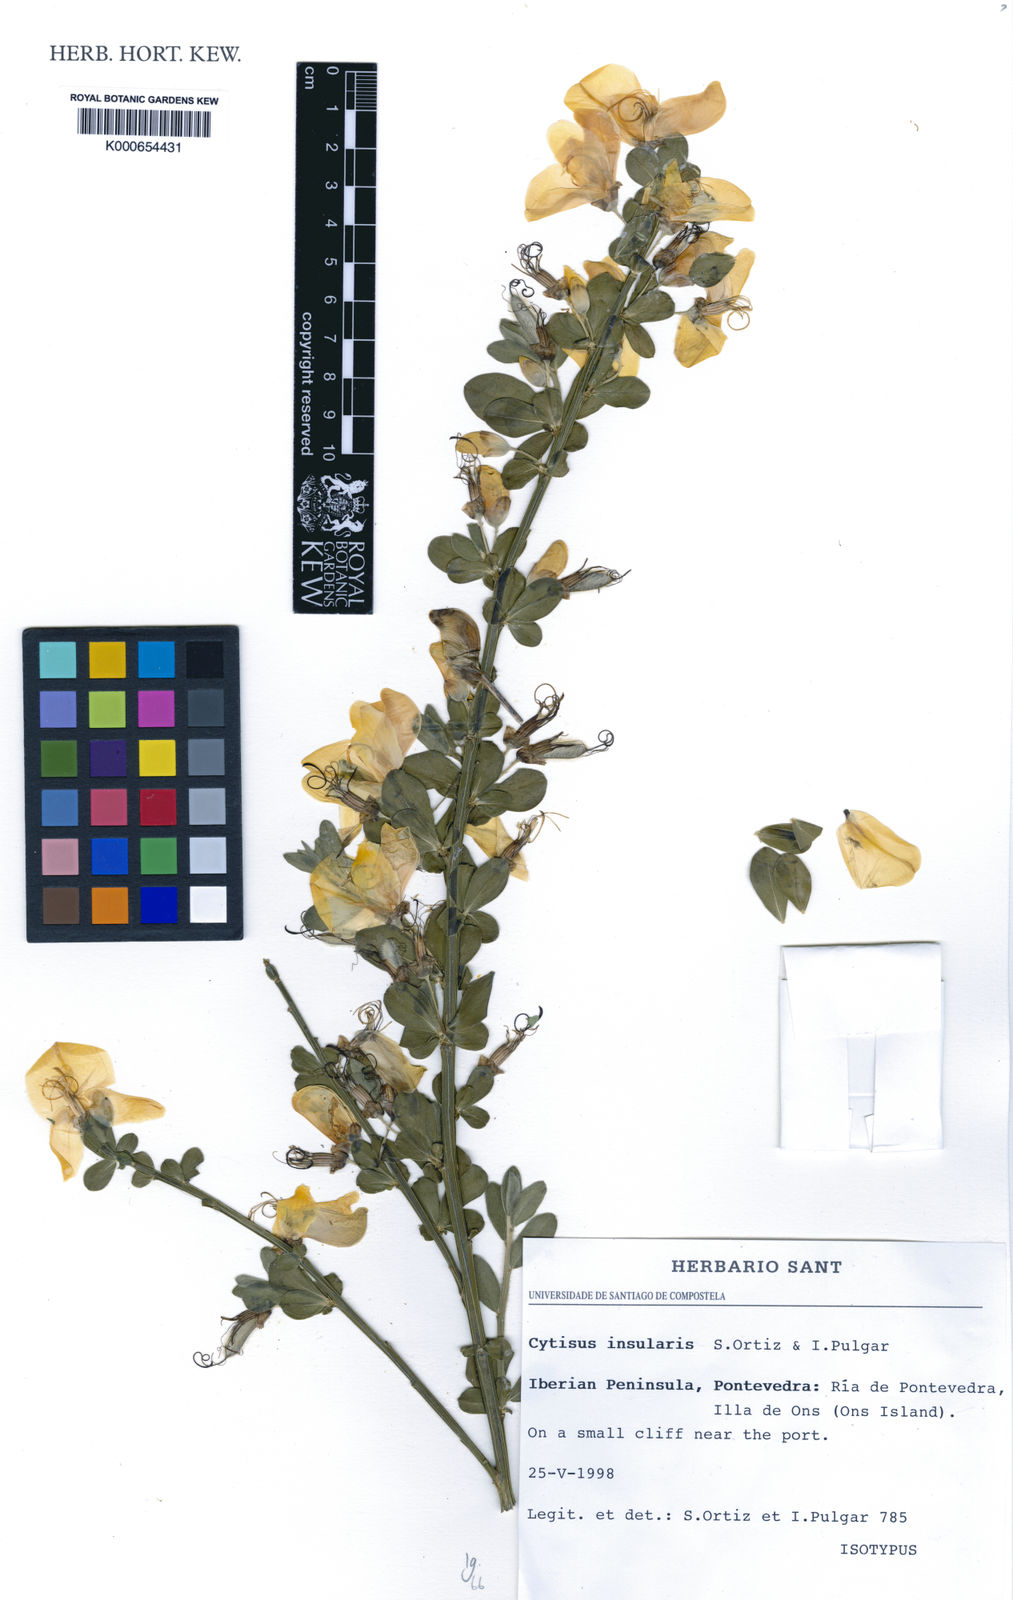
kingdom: Plantae
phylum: Tracheophyta
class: Magnoliopsida
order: Fabales
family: Fabaceae
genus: Cytisus
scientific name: Cytisus
